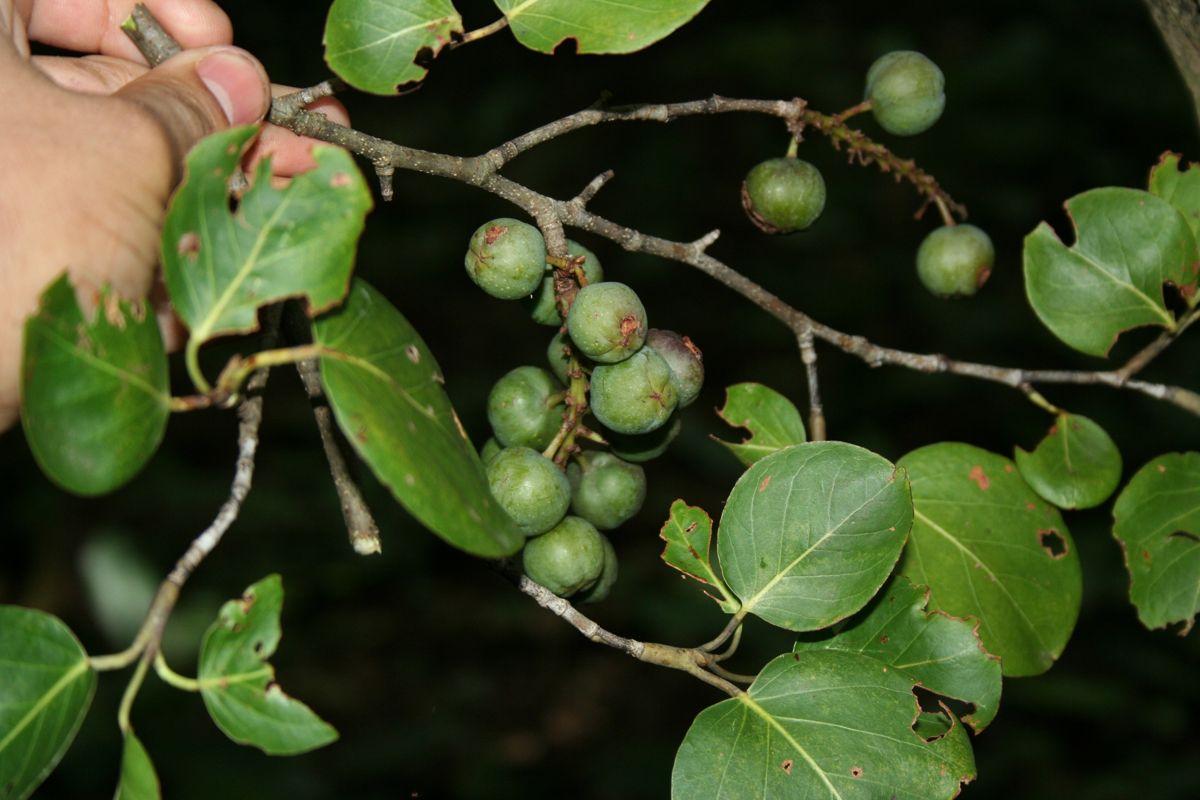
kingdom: Plantae
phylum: Tracheophyta
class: Magnoliopsida
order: Caryophyllales
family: Polygonaceae
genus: Coccoloba
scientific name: Coccoloba acapulcensis
